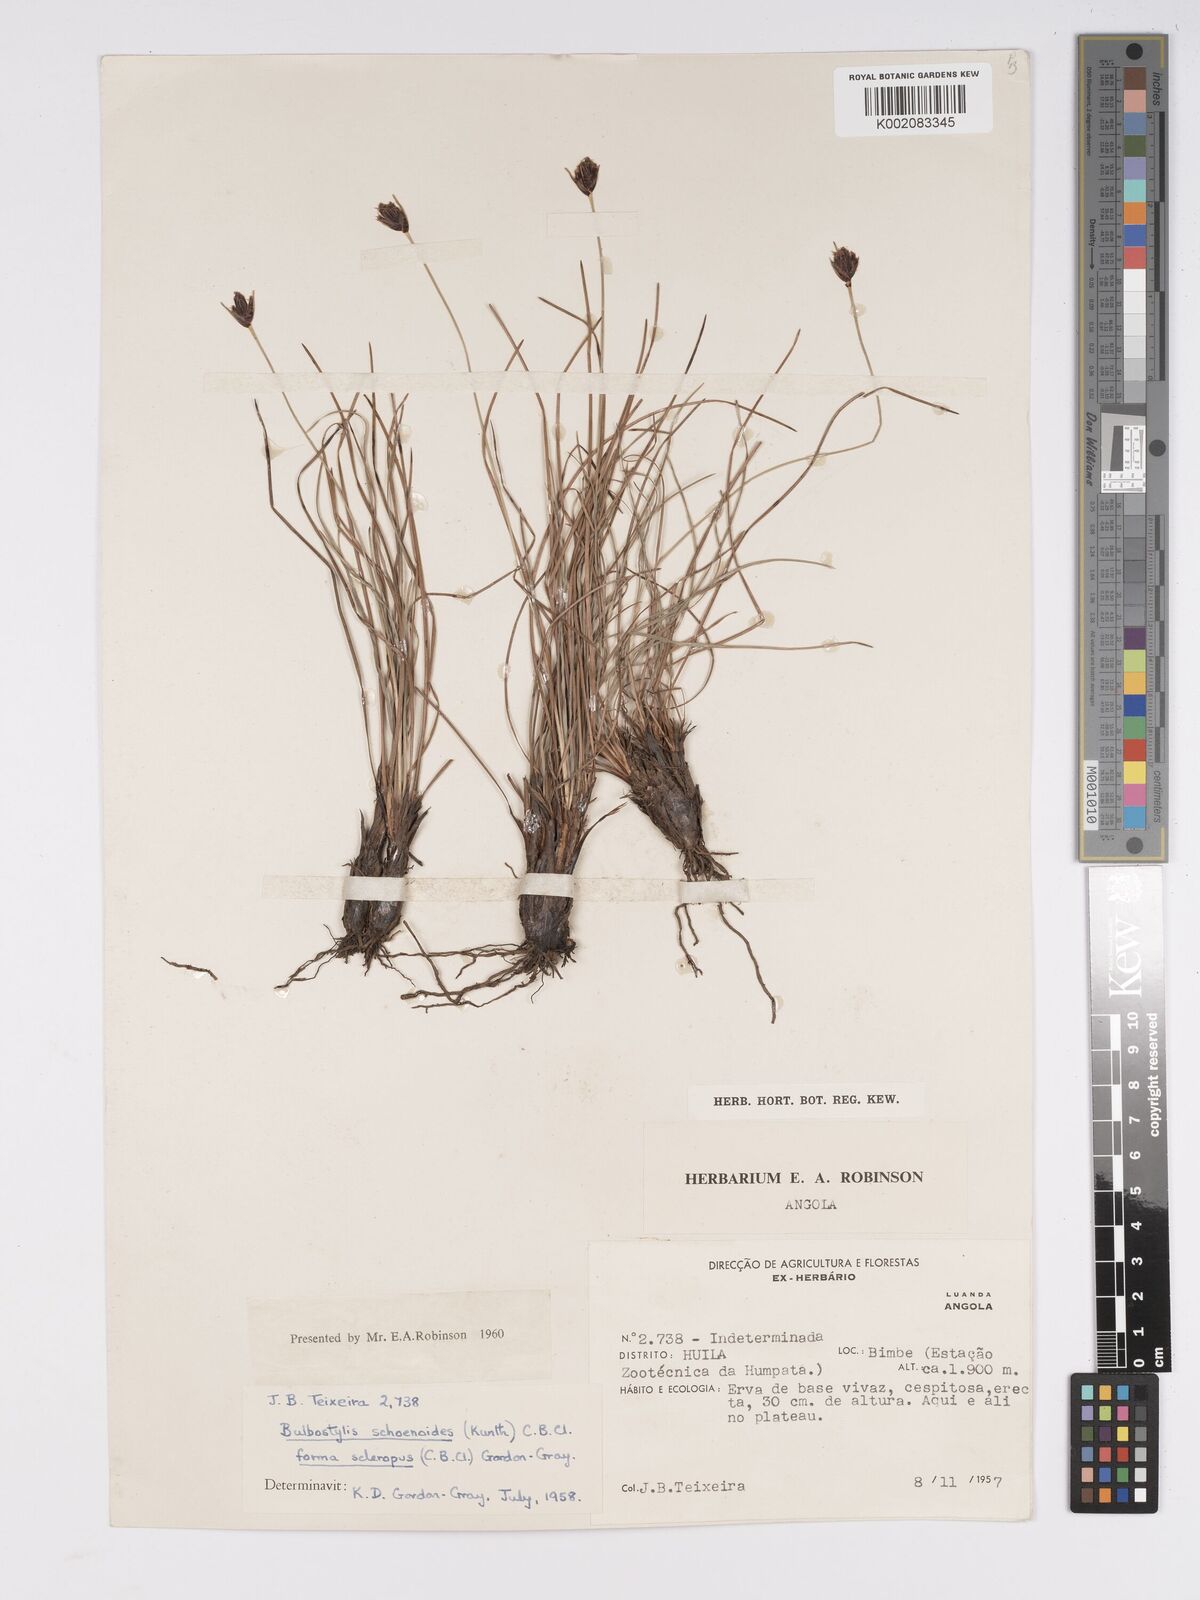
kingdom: Plantae
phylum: Tracheophyta
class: Liliopsida
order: Poales
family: Cyperaceae
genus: Bulbostylis
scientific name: Bulbostylis schoenoides
